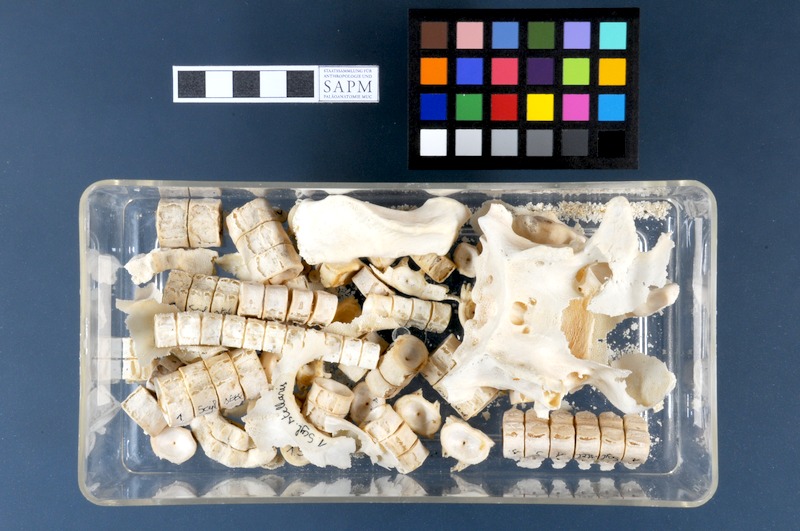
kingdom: Animalia
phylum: Chordata
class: Elasmobranchii
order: Carcharhiniformes
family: Scyliorhinidae
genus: Scyliorhinus
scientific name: Scyliorhinus stellaris
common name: Nursehound
